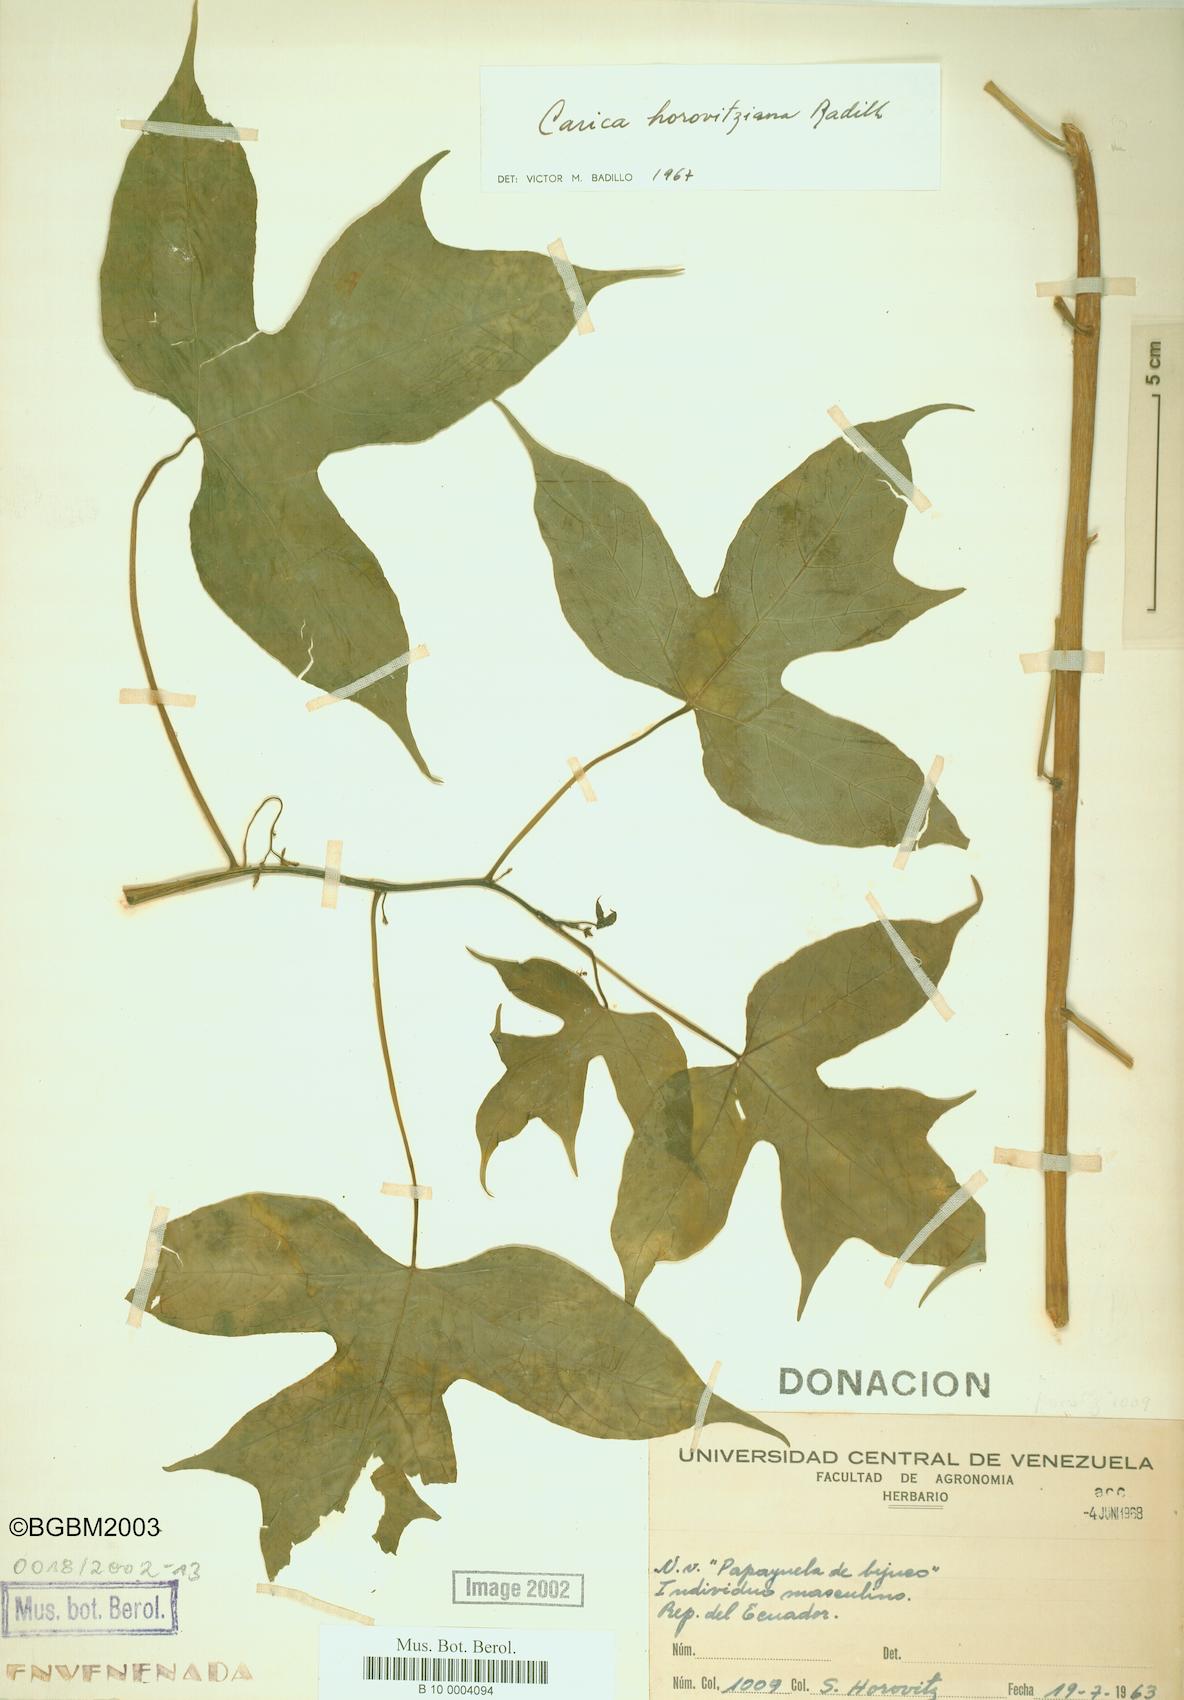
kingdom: Plantae
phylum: Tracheophyta
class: Magnoliopsida
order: Brassicales
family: Caricaceae
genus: Vasconcellea
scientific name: Vasconcellea horovitziana
